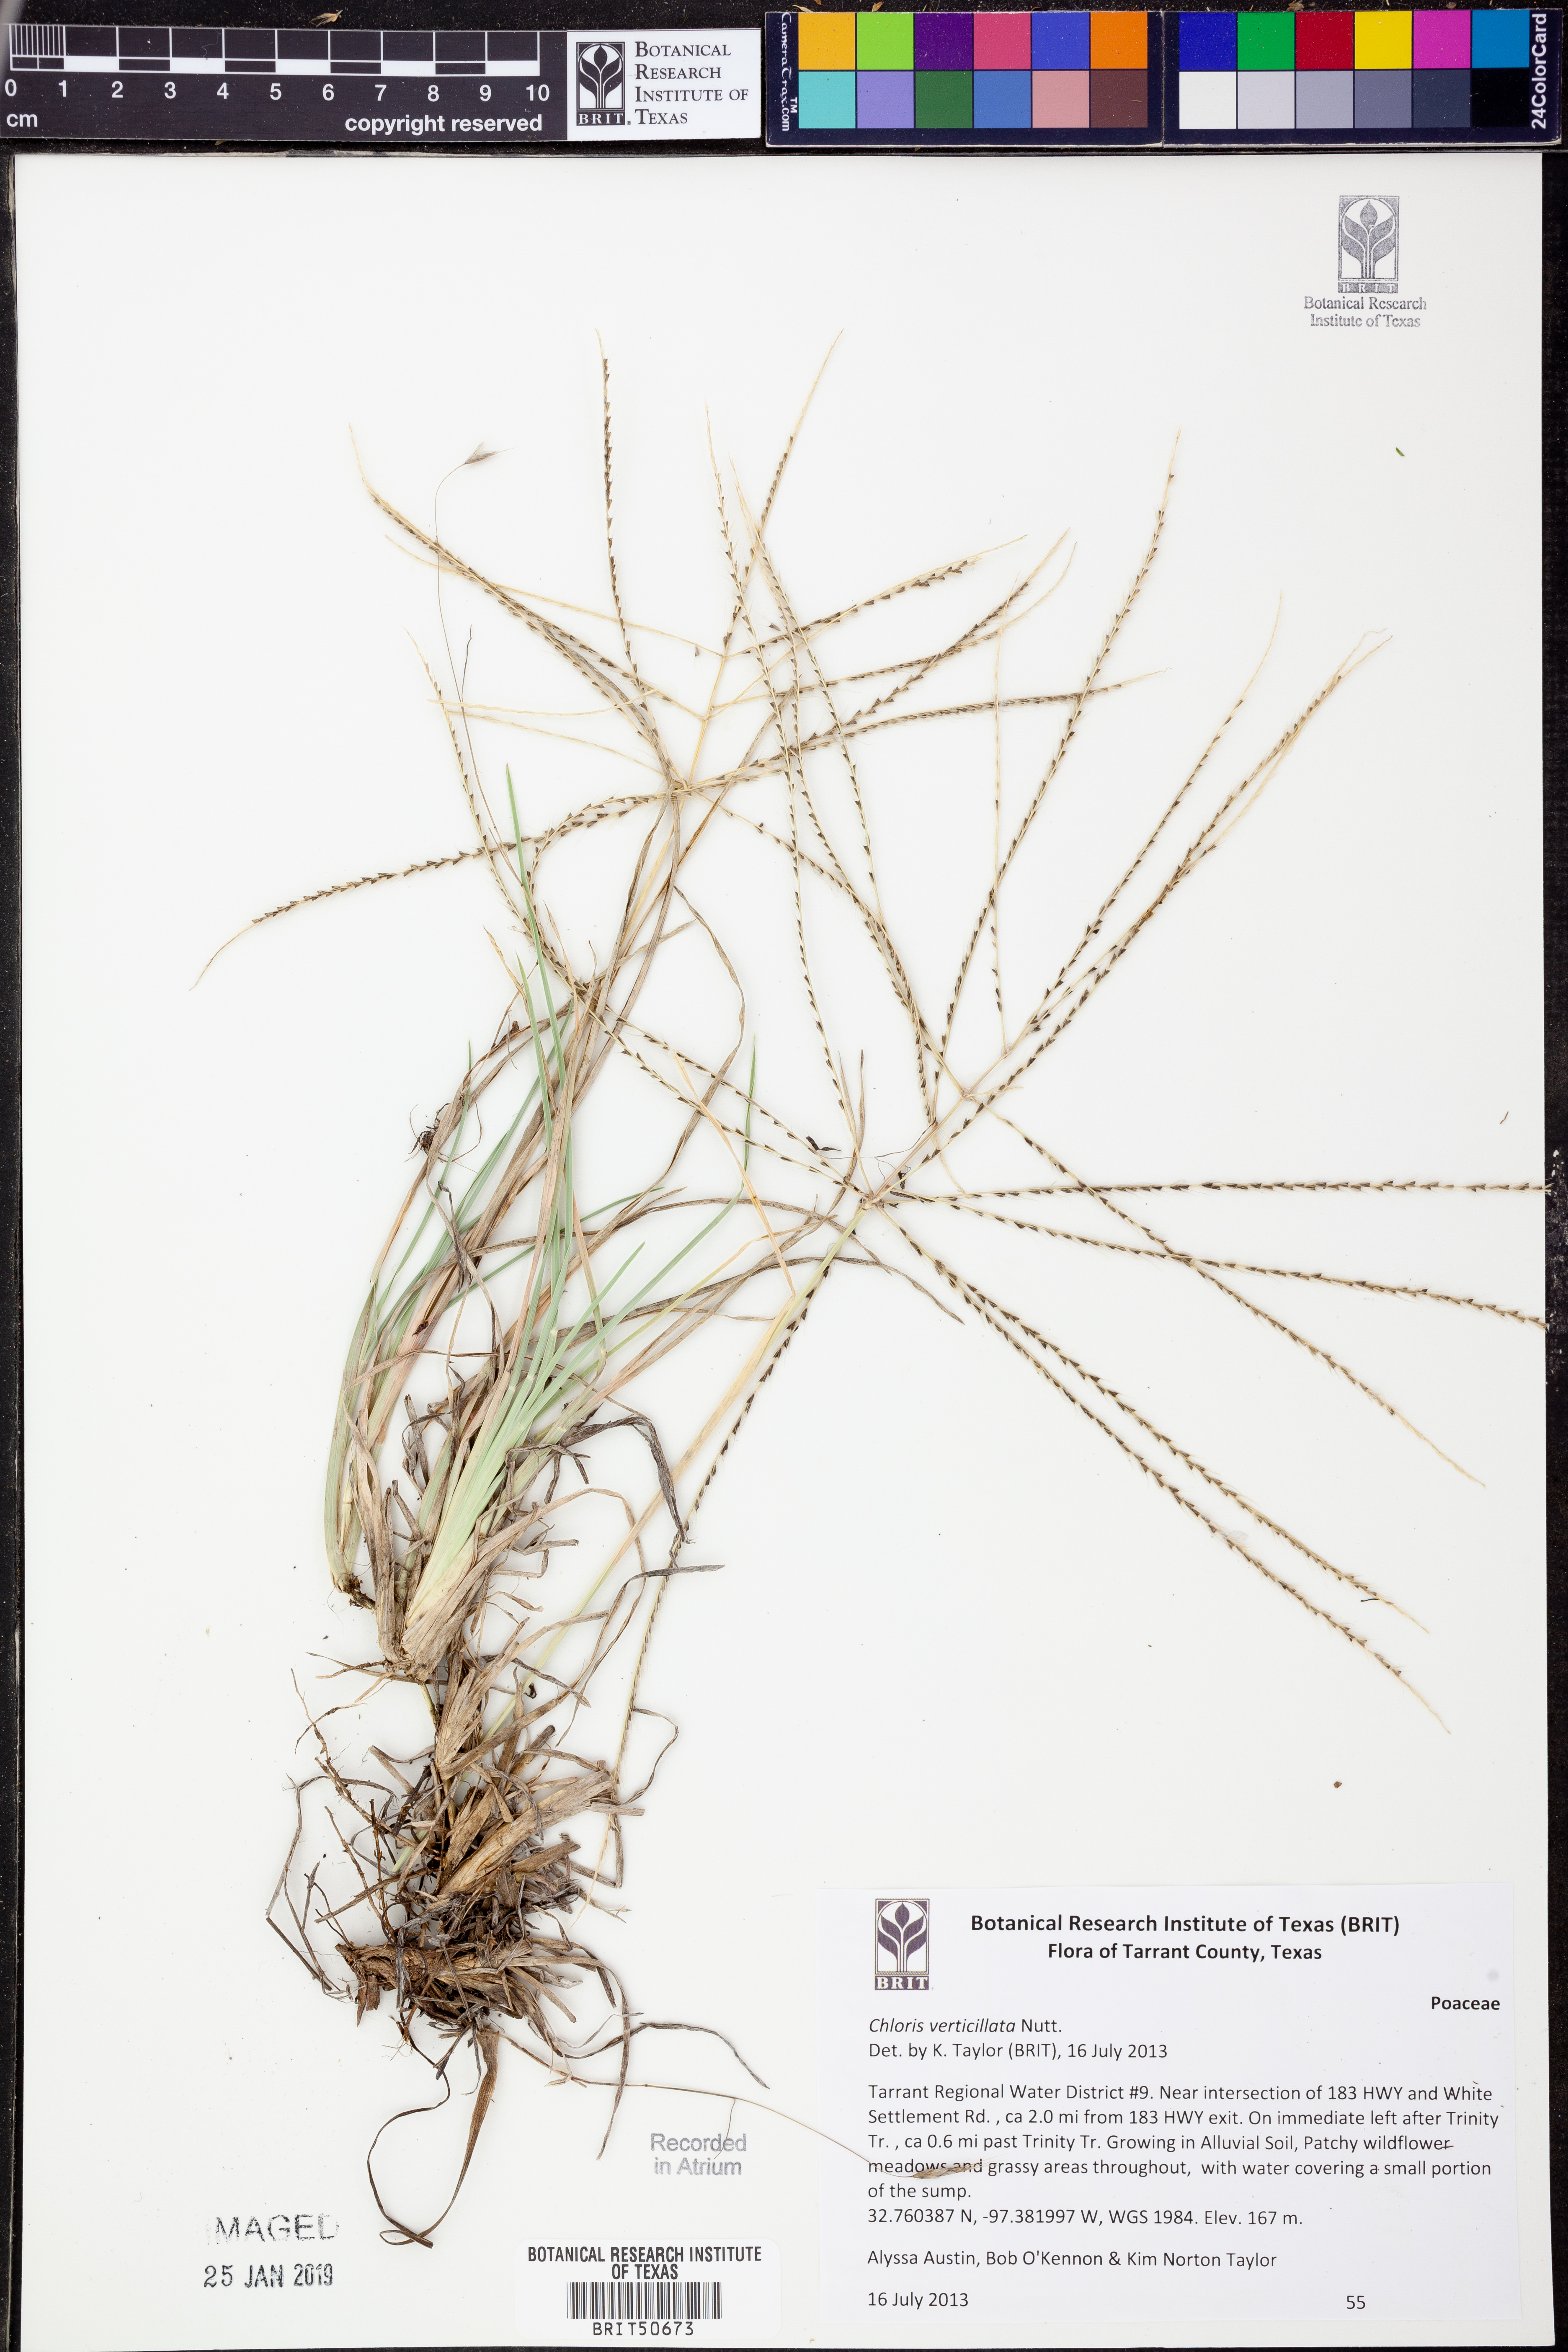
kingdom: Plantae
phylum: Tracheophyta
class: Liliopsida
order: Poales
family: Poaceae
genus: Chloris
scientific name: Chloris verticillata
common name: Tumble windmill grass
